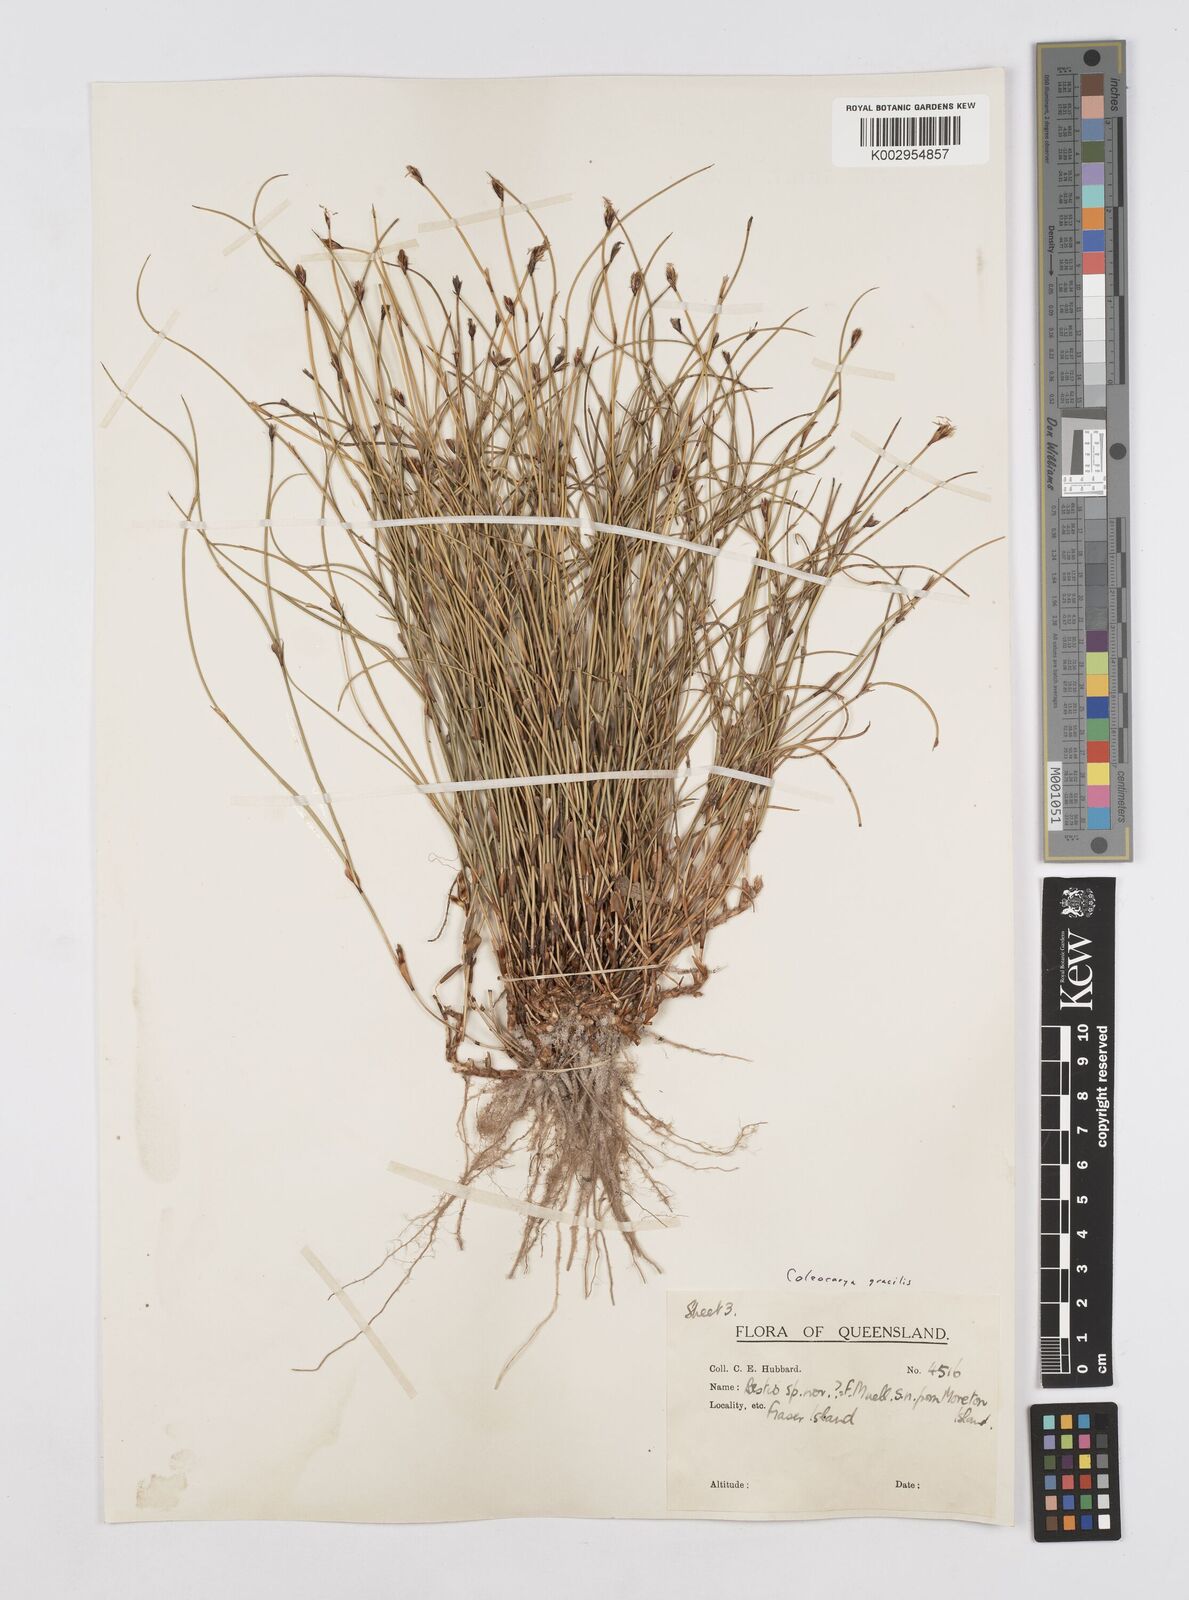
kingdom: Plantae
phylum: Tracheophyta
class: Liliopsida
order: Poales
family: Restionaceae
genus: Coleocarya
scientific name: Coleocarya gracilis
